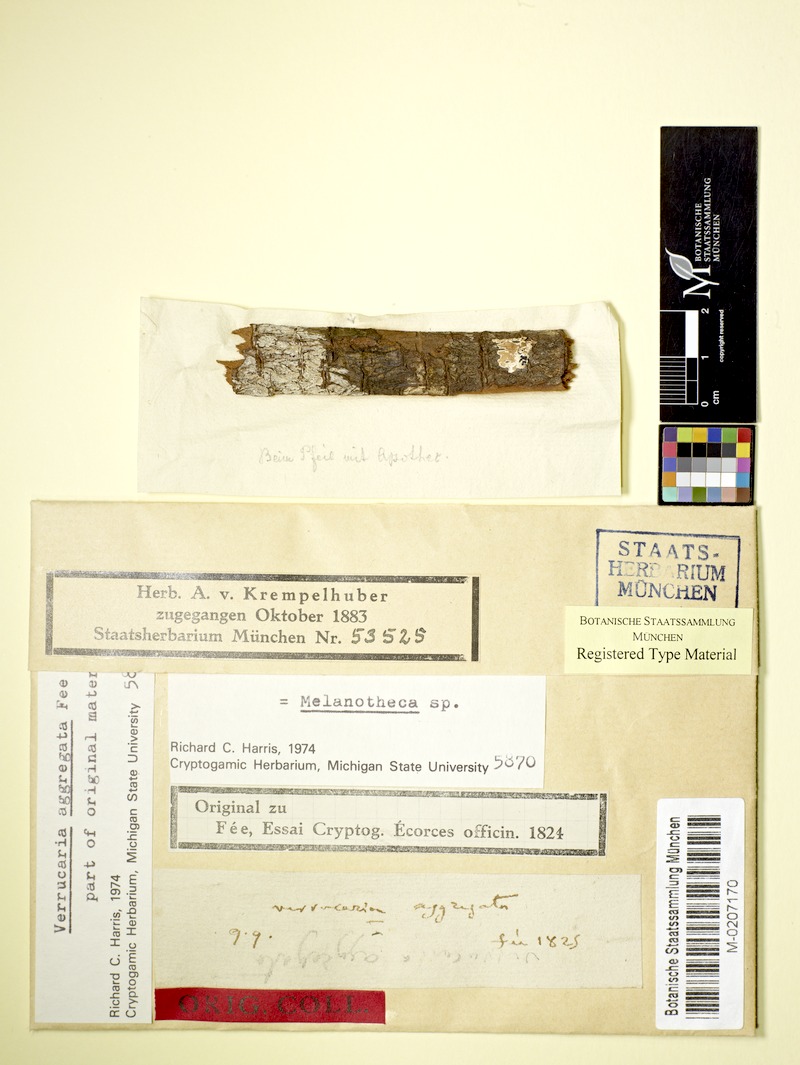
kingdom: Fungi
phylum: Ascomycota
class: Eurotiomycetes
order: Verrucariales
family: Verrucariaceae
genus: Melanotheca
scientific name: Melanotheca aggregata
